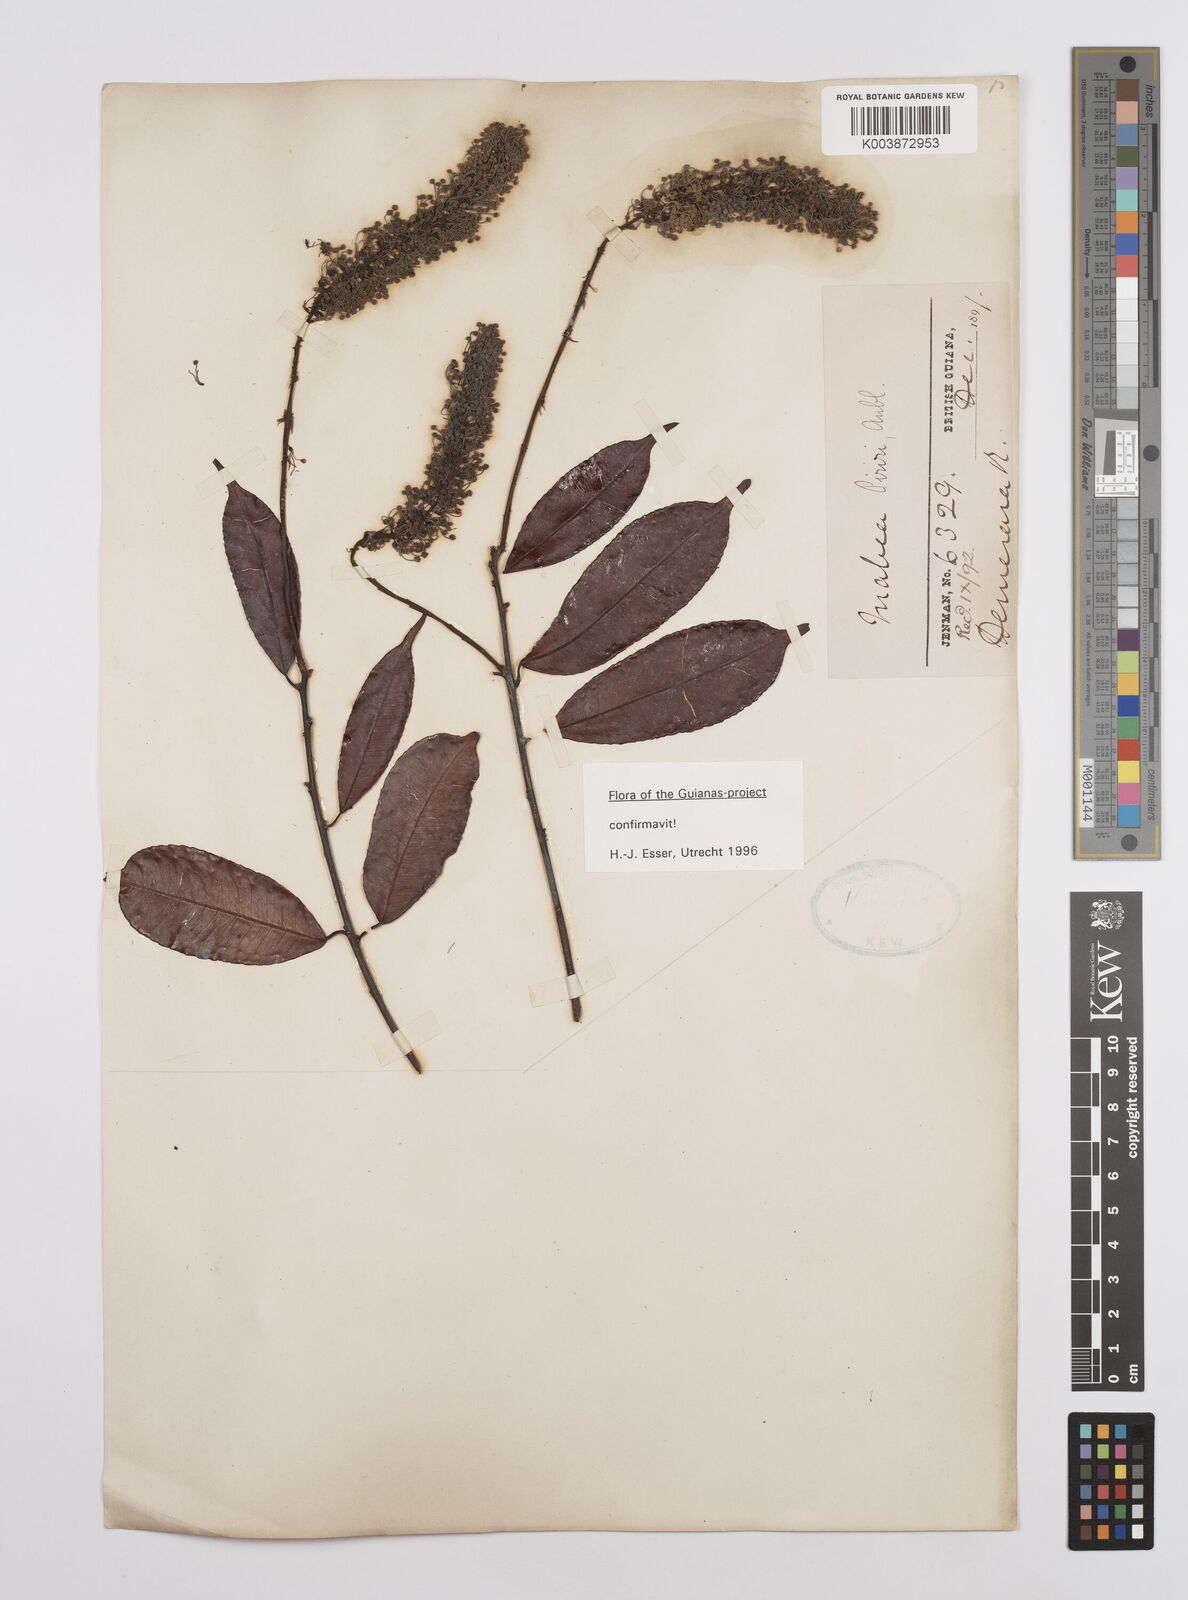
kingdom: Plantae
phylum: Tracheophyta
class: Magnoliopsida
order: Malpighiales
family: Euphorbiaceae
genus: Mabea
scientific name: Mabea piriri
